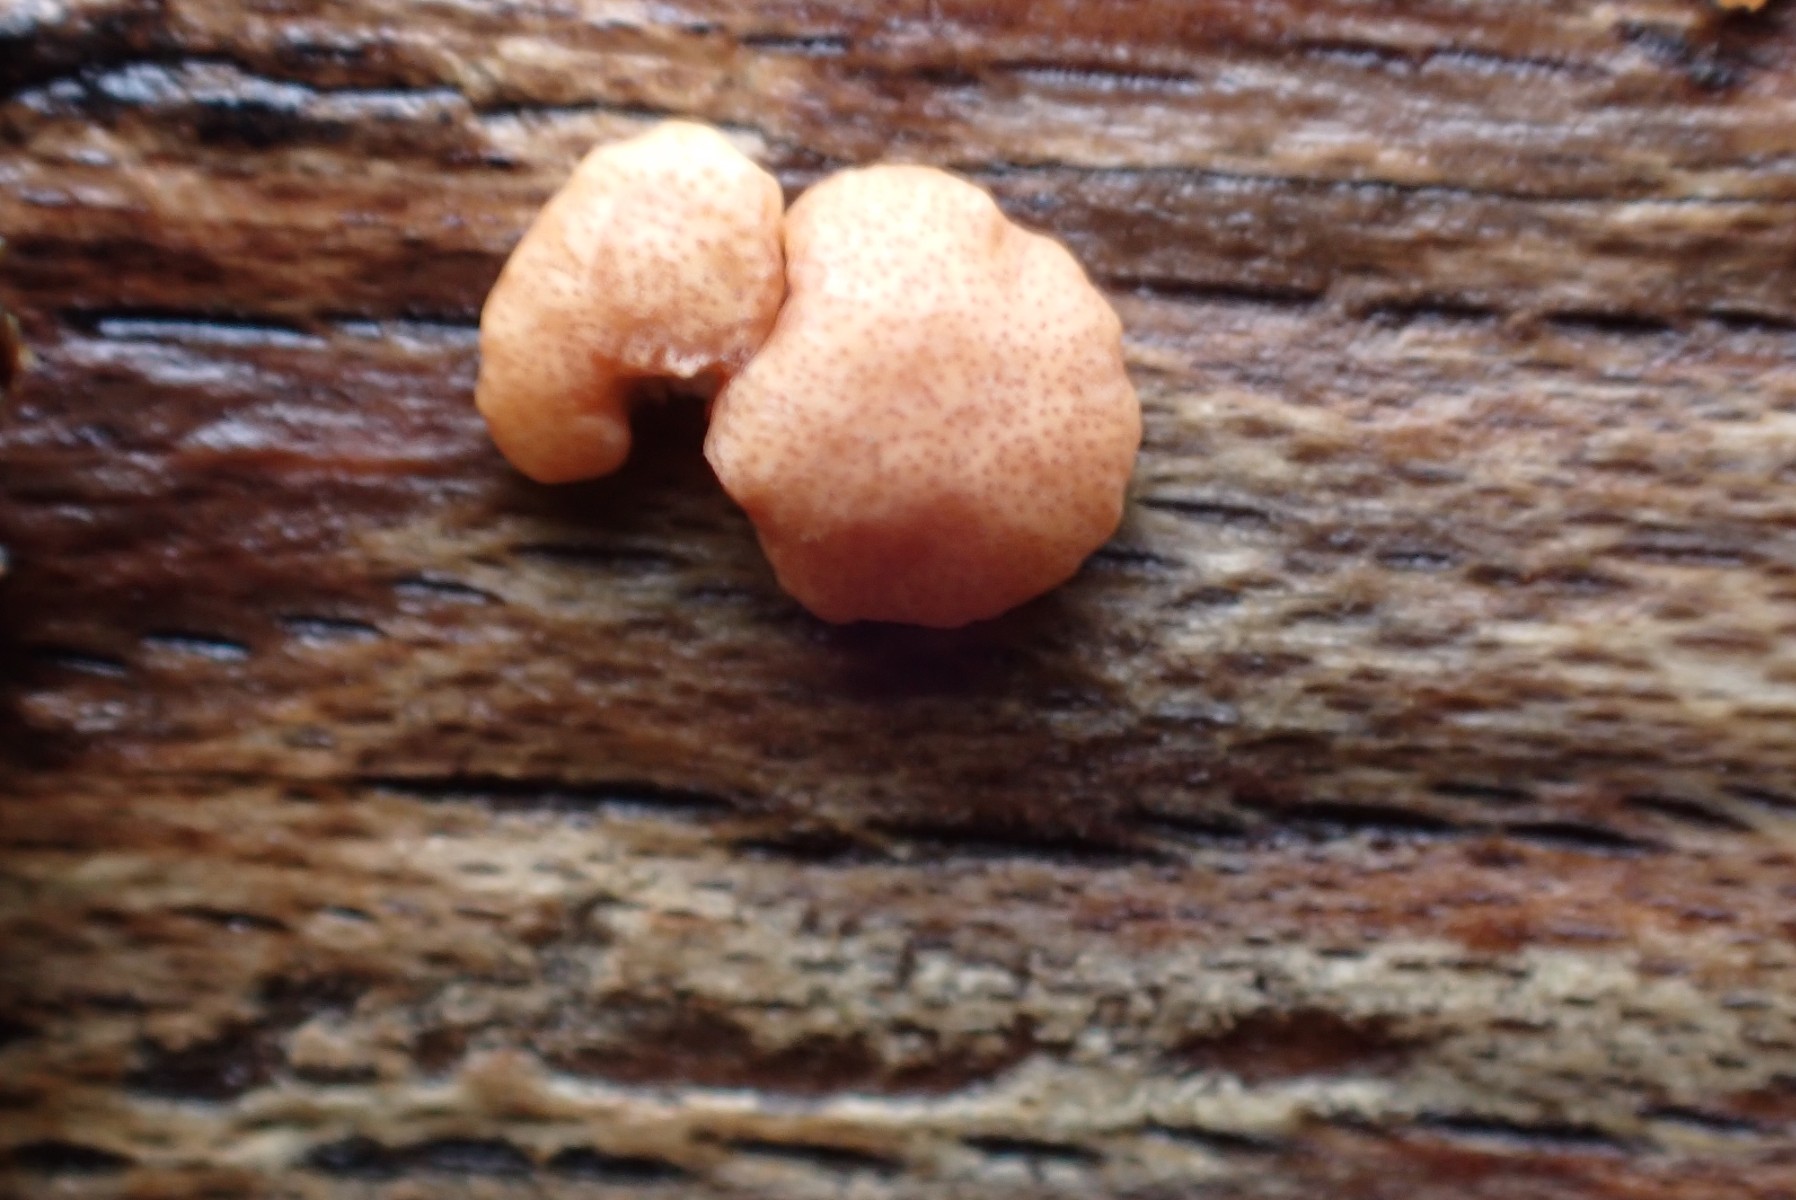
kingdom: Fungi
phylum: Ascomycota
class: Sordariomycetes
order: Hypocreales
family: Hypocreaceae
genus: Trichoderma
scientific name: Trichoderma europaeum
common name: rosabrun kødkerne
